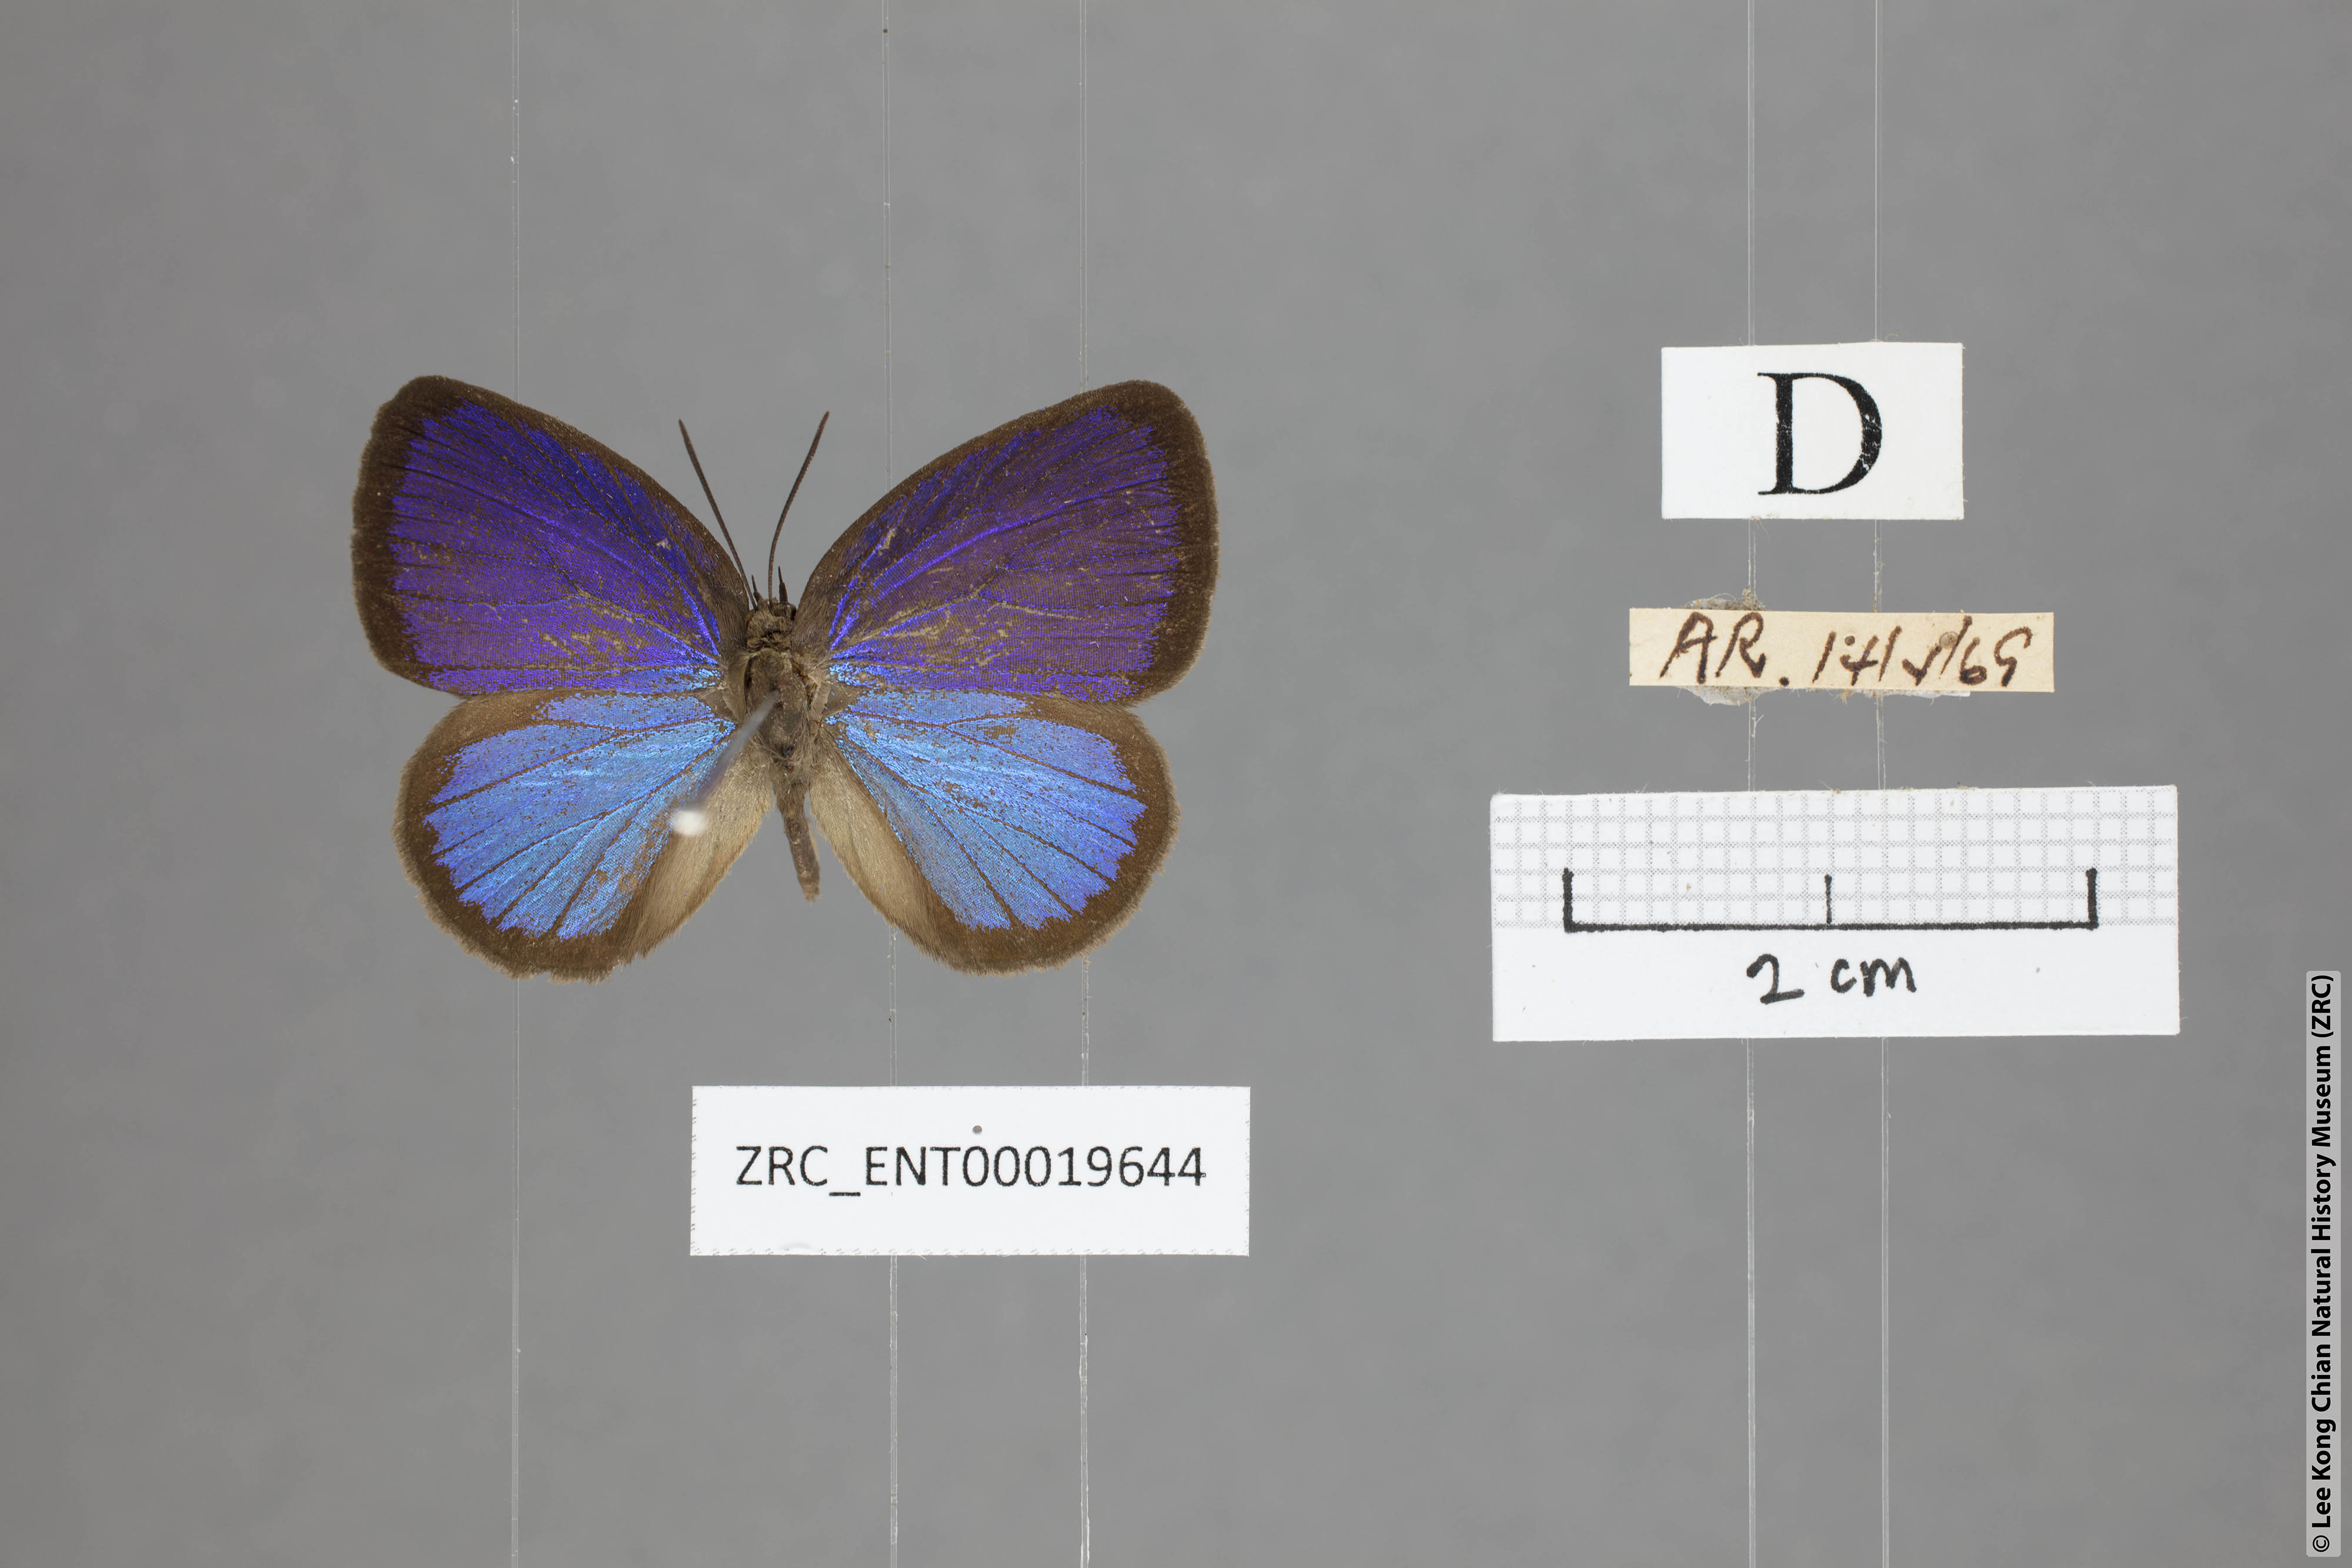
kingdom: Animalia
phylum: Arthropoda
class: Insecta
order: Lepidoptera
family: Lycaenidae
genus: Arhopala
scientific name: Arhopala metamuta
